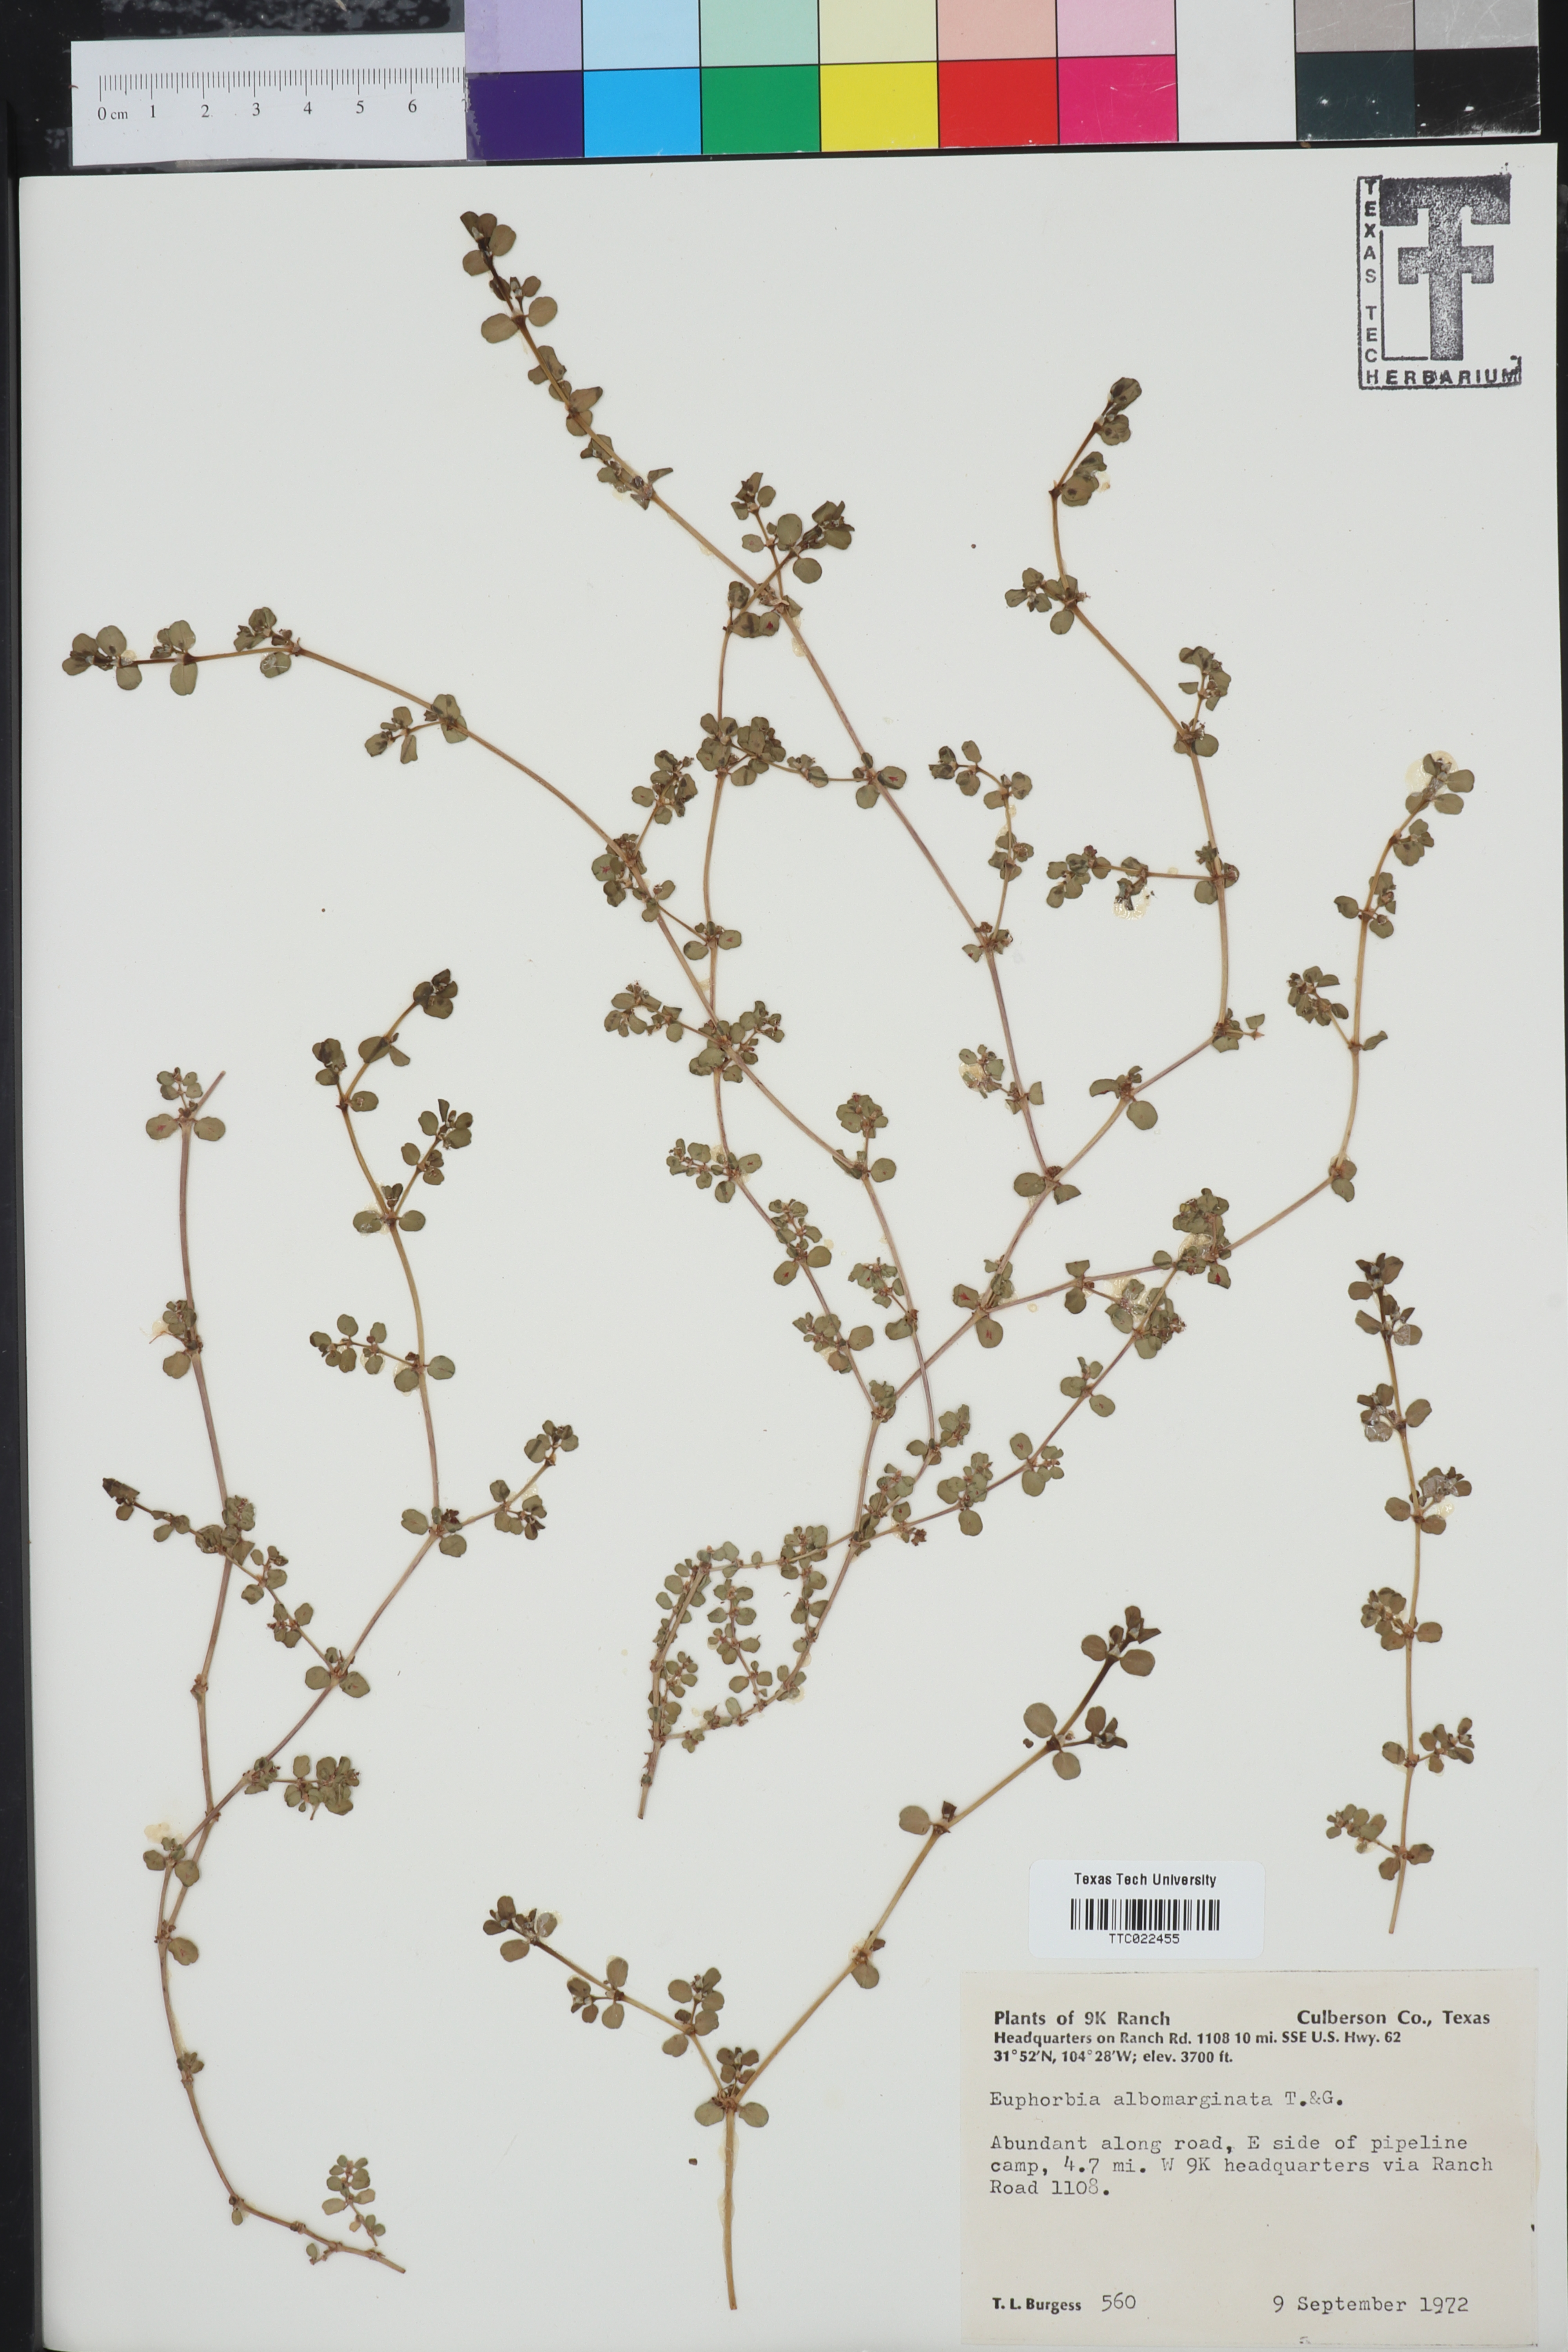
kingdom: Plantae
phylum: Tracheophyta
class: Magnoliopsida
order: Malpighiales
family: Euphorbiaceae
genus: Euphorbia
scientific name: Euphorbia albomarginata
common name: Whitemargin sandmat
